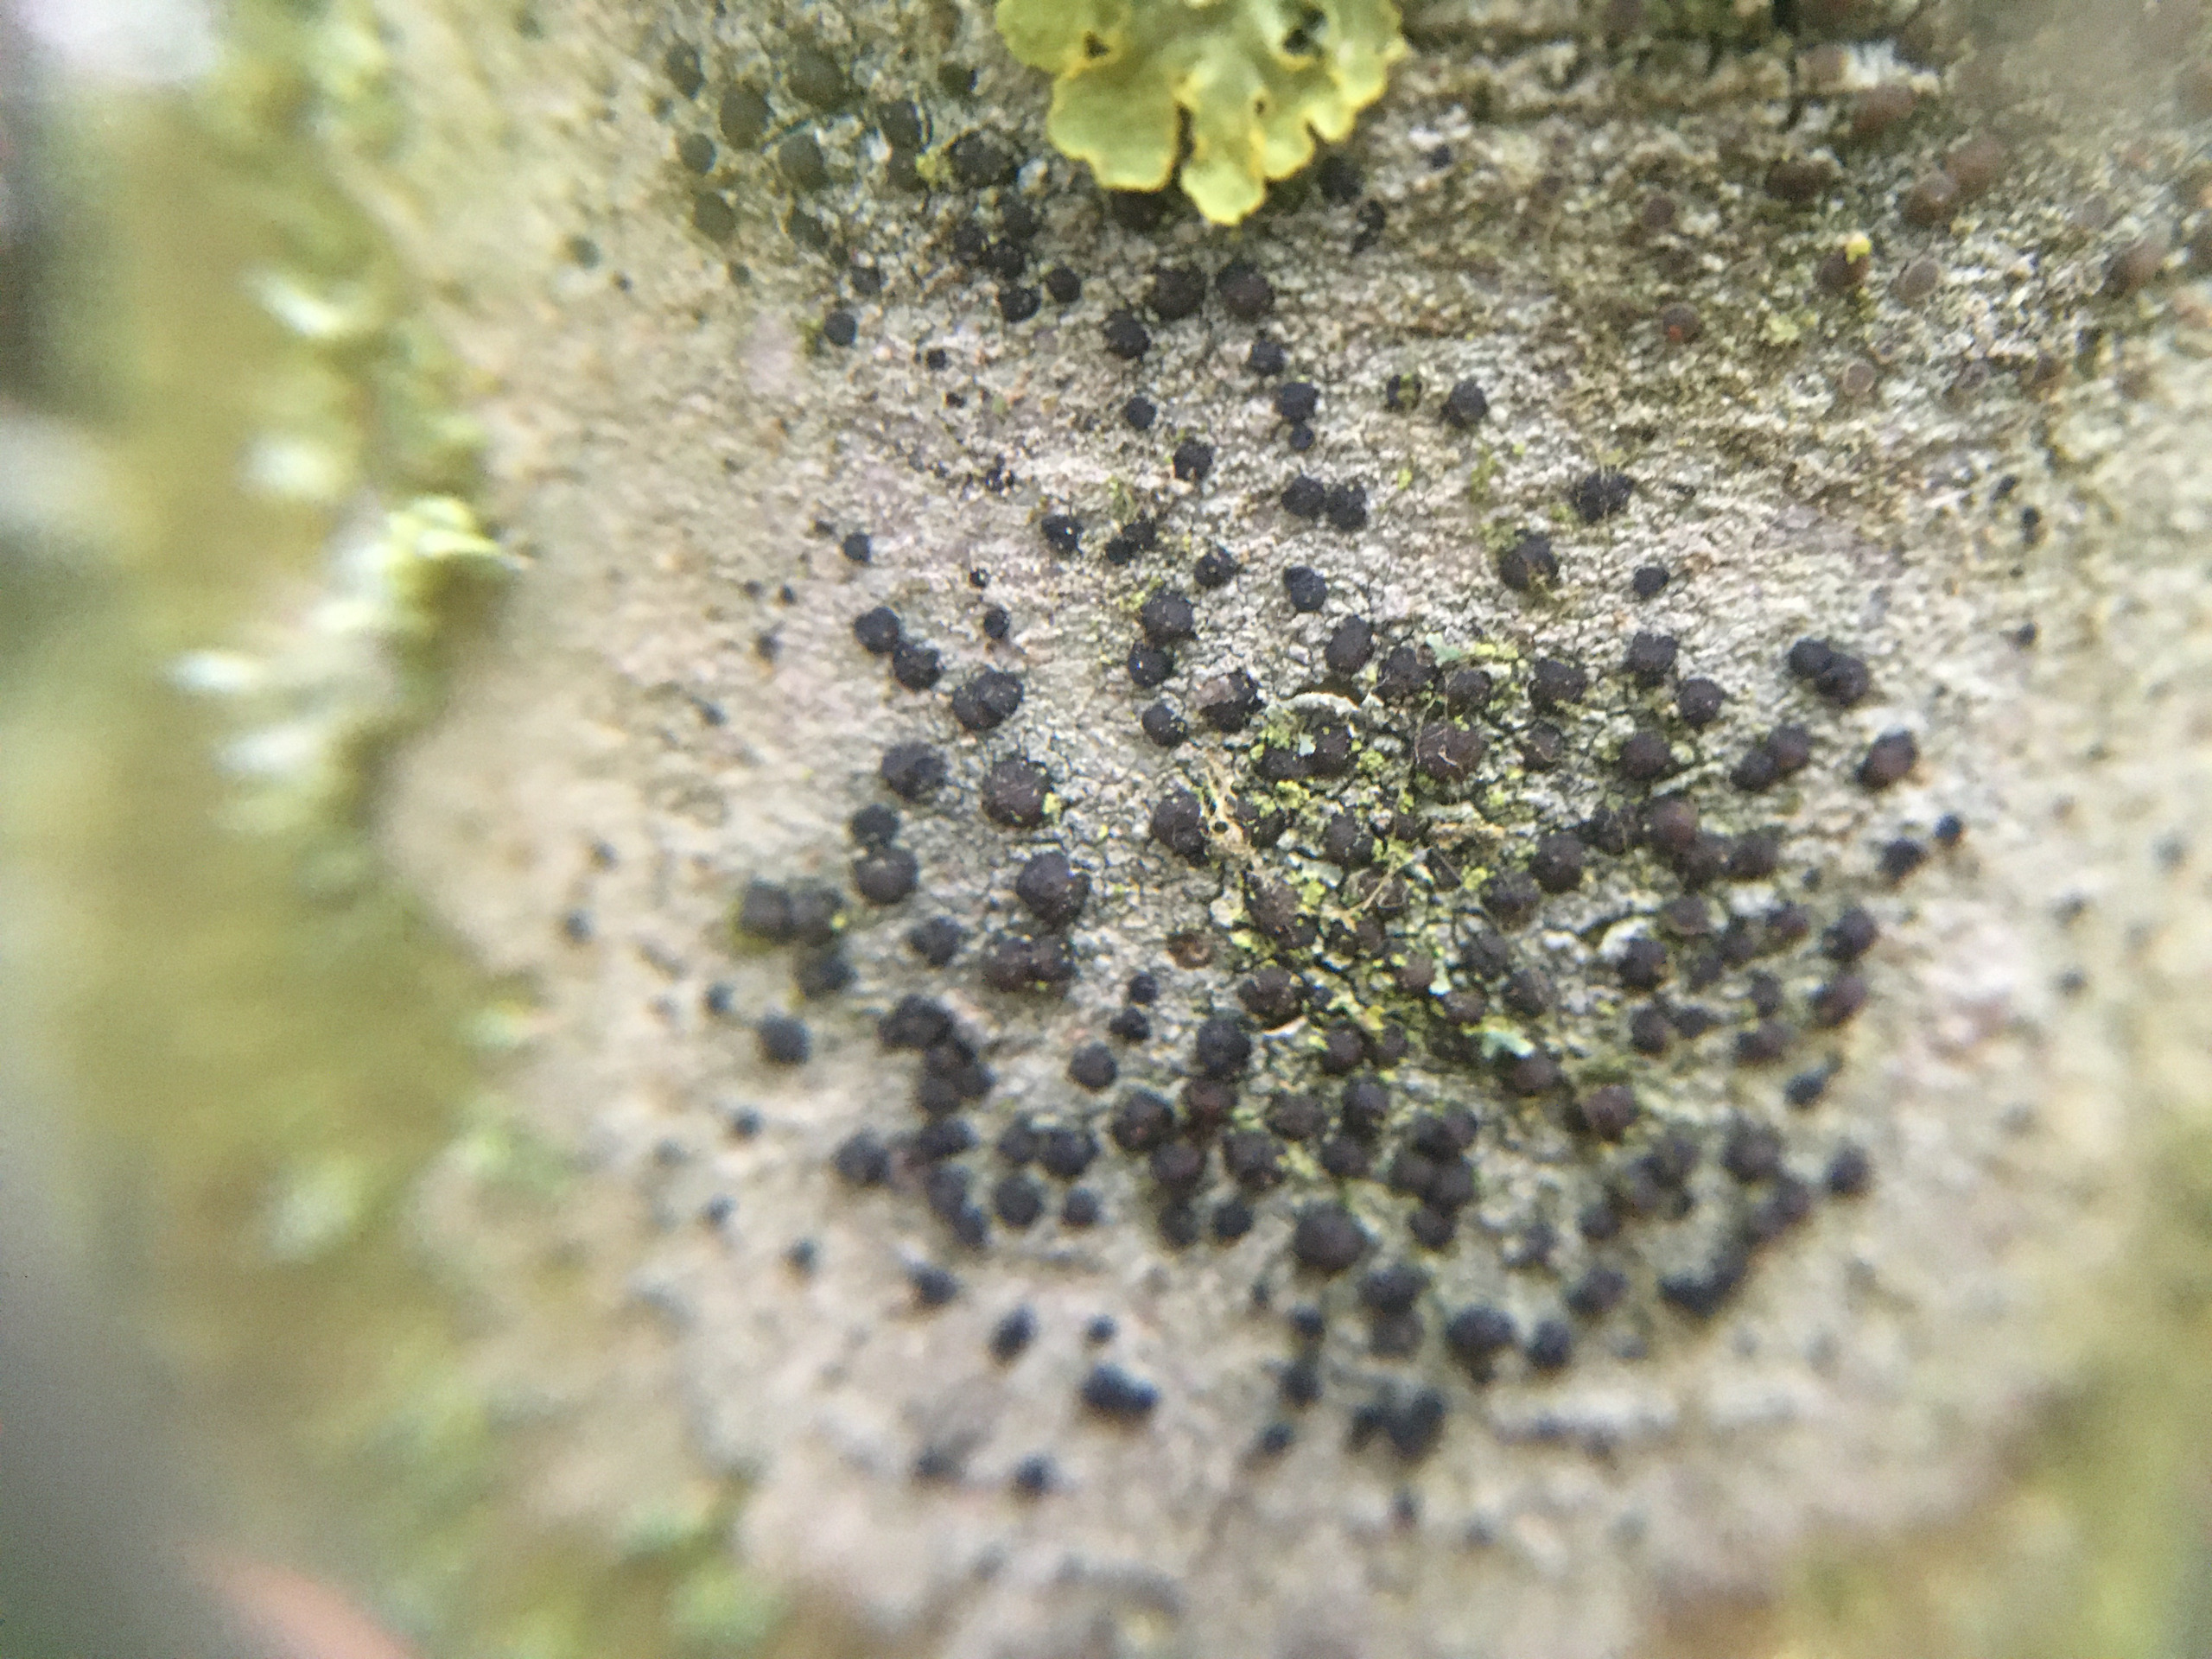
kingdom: Fungi
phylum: Ascomycota
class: Lecanoromycetes
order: Lecanorales
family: Lecanoraceae
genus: Lecidella
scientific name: Lecidella elaeochroma
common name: Grågrøn skivelav
